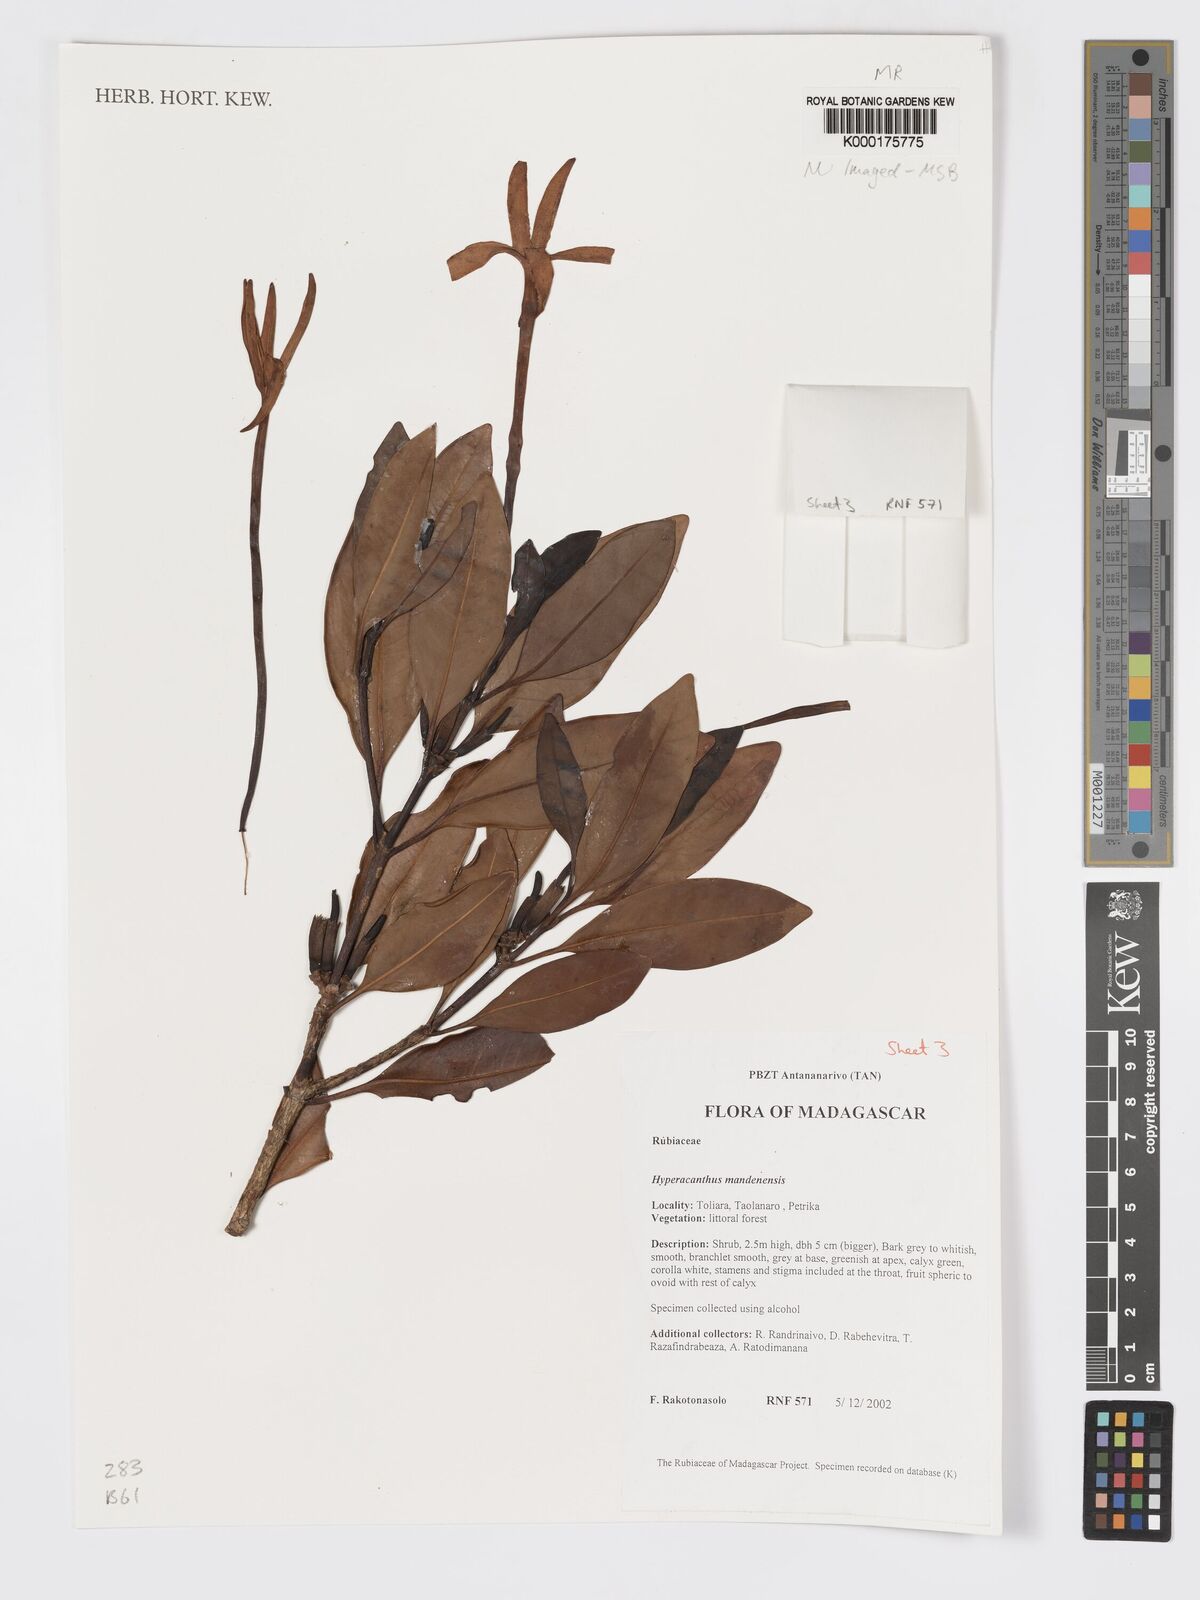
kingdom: Plantae
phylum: Tracheophyta
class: Magnoliopsida
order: Gentianales
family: Rubiaceae
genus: Hyperacanthus
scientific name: Hyperacanthus mandenensis
